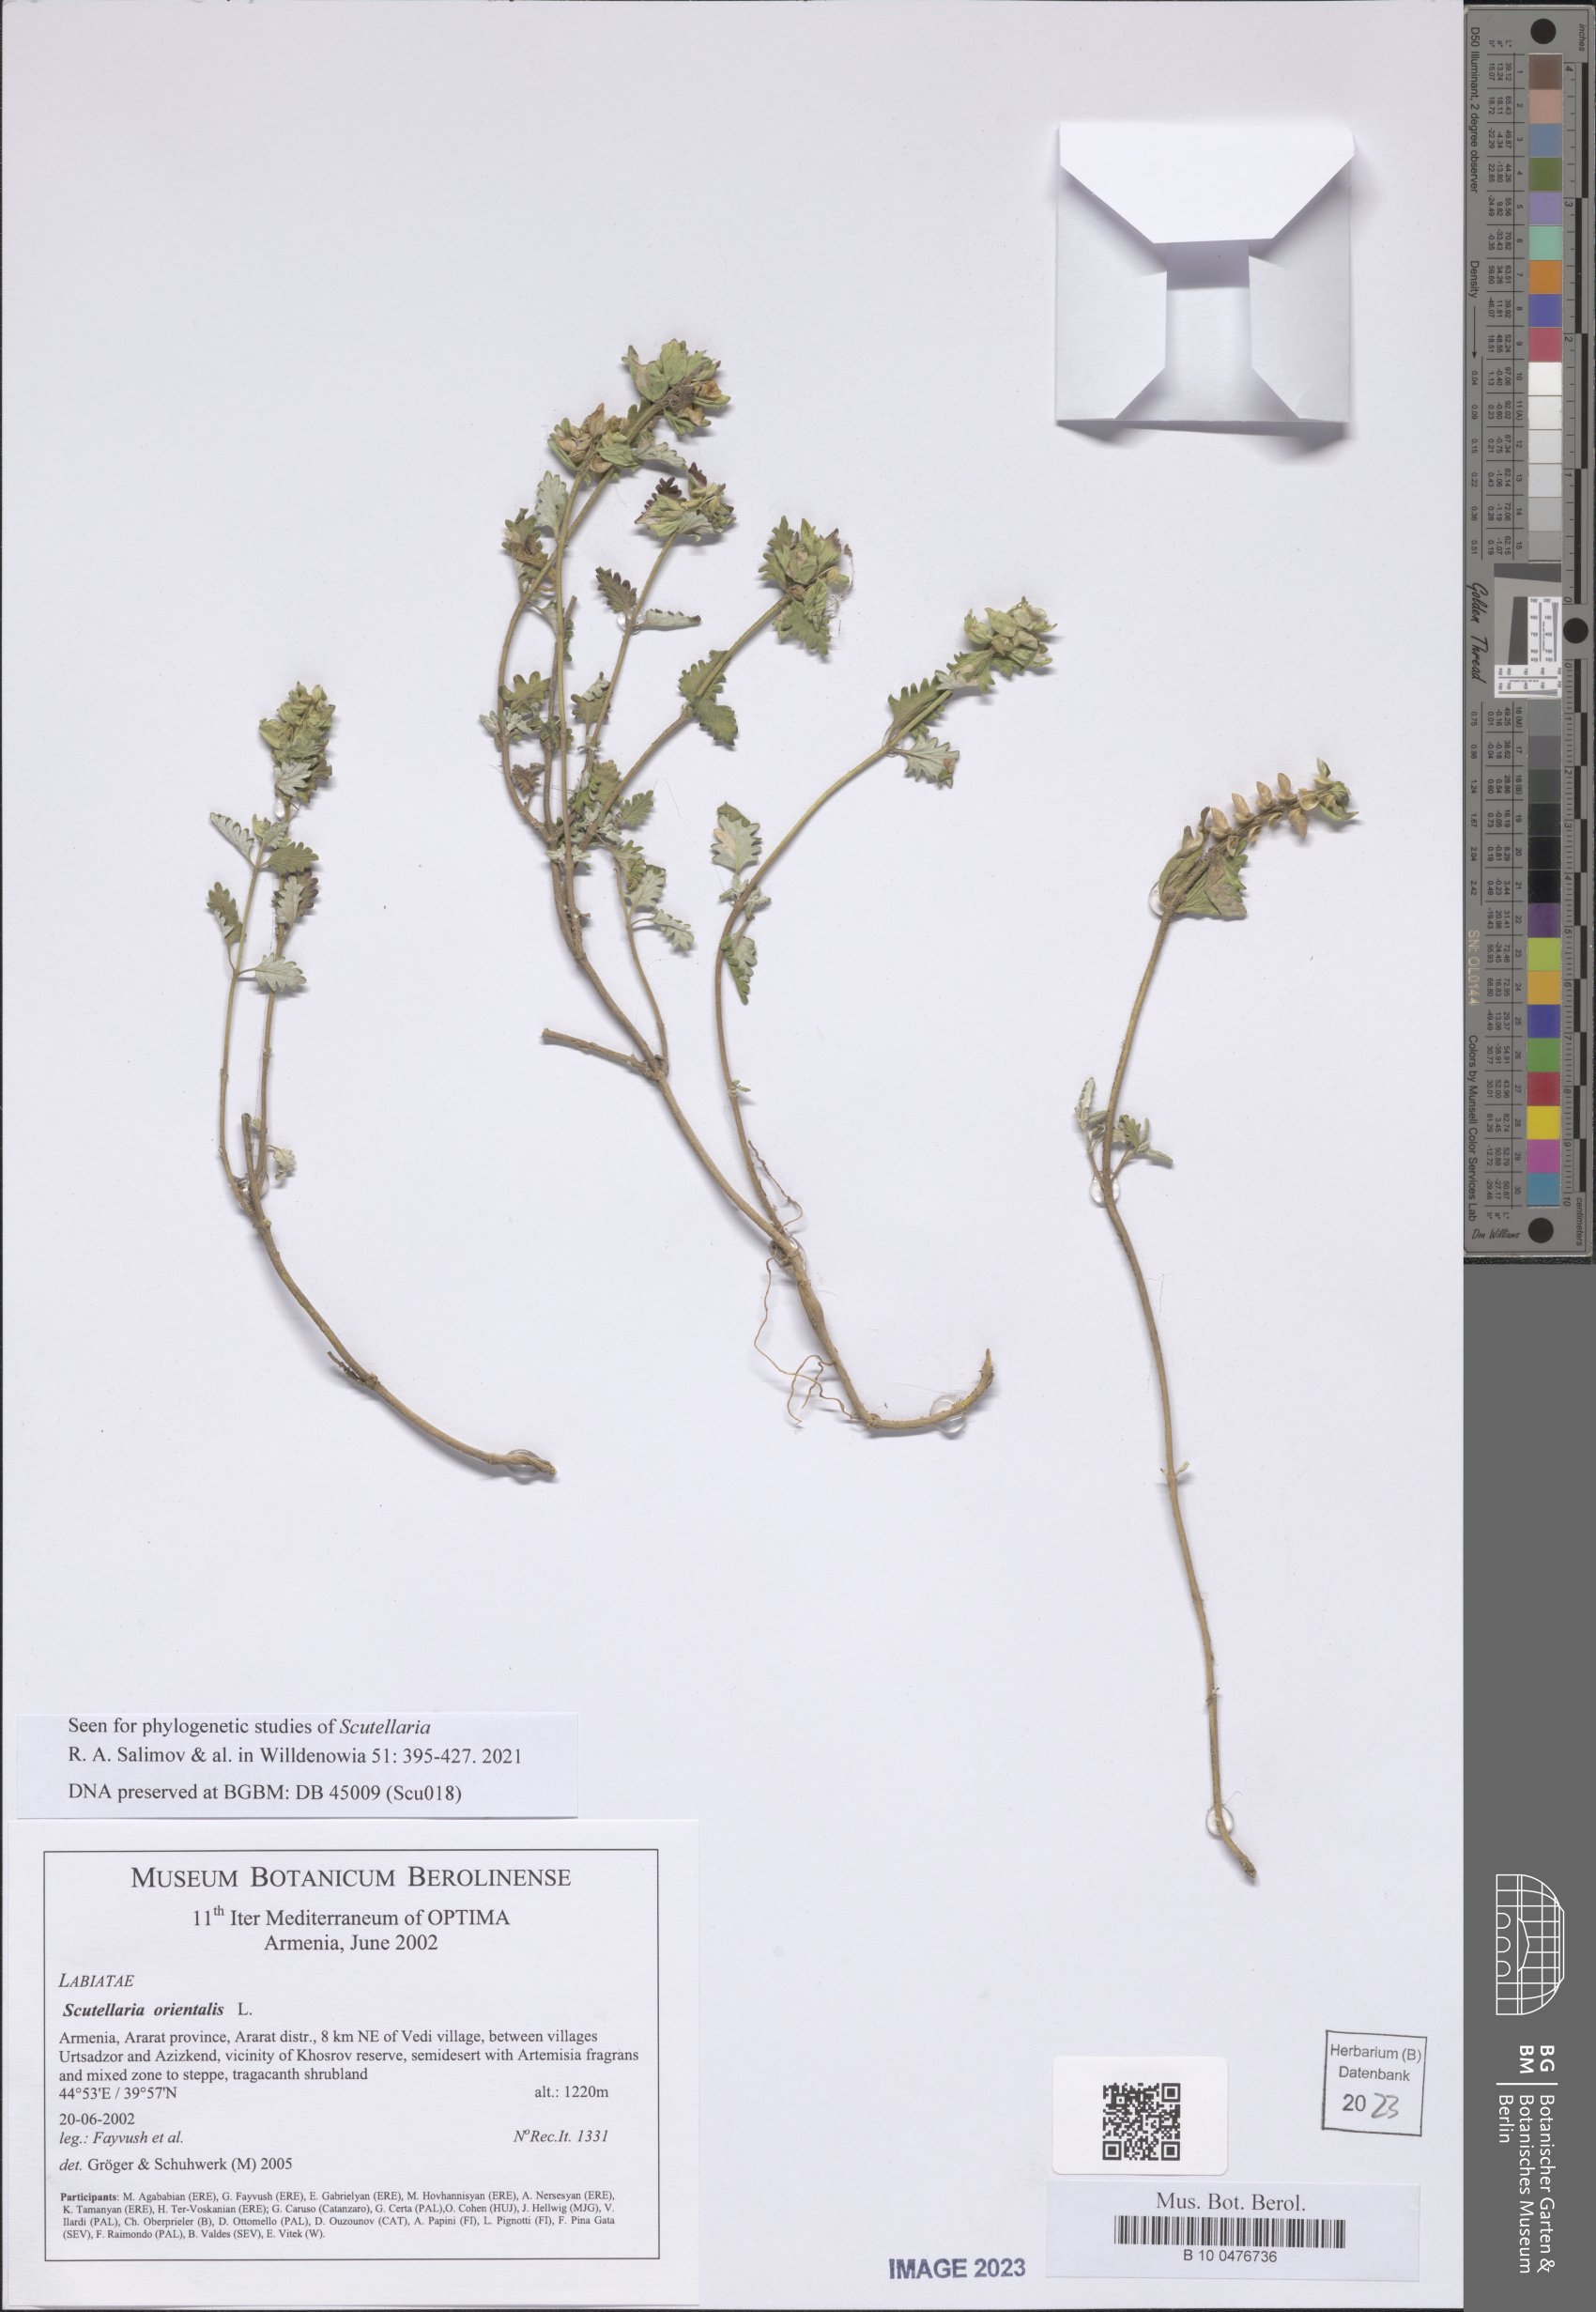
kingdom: Plantae
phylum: Tracheophyta
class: Magnoliopsida
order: Lamiales
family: Lamiaceae
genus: Scutellaria
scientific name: Scutellaria orientalis
